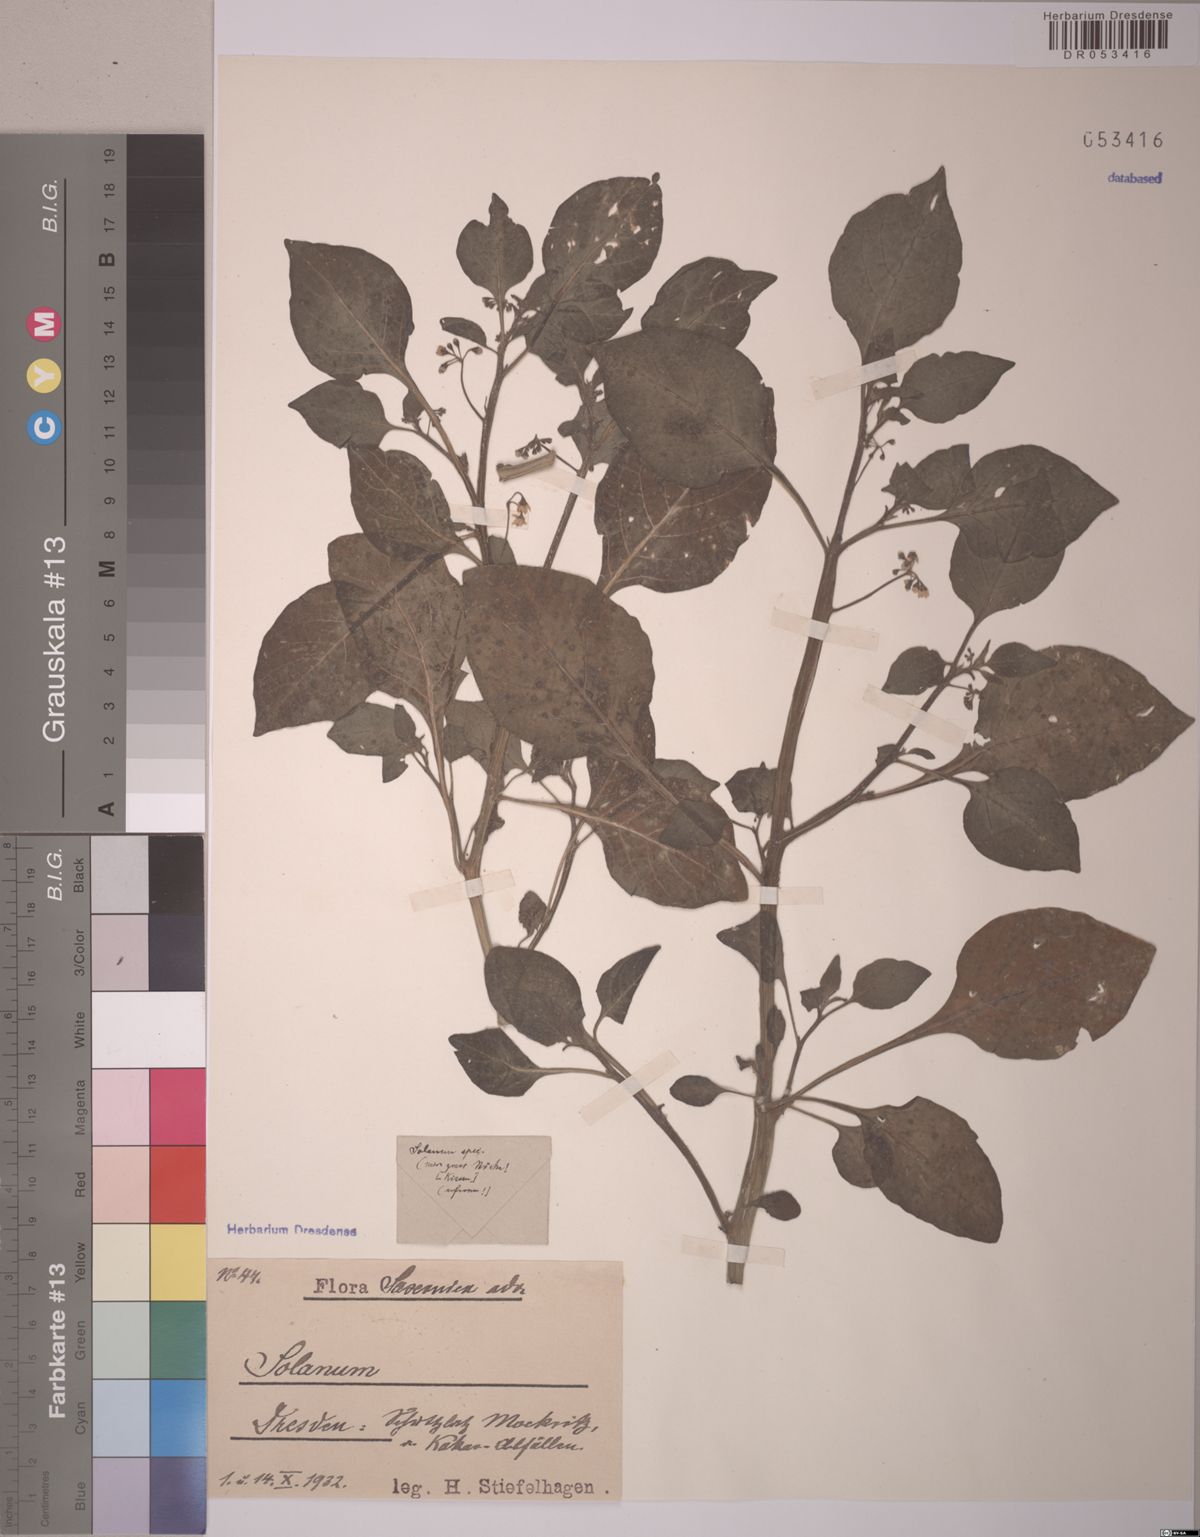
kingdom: Plantae
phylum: Tracheophyta
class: Magnoliopsida
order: Solanales
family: Solanaceae
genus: Solanum
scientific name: Solanum
